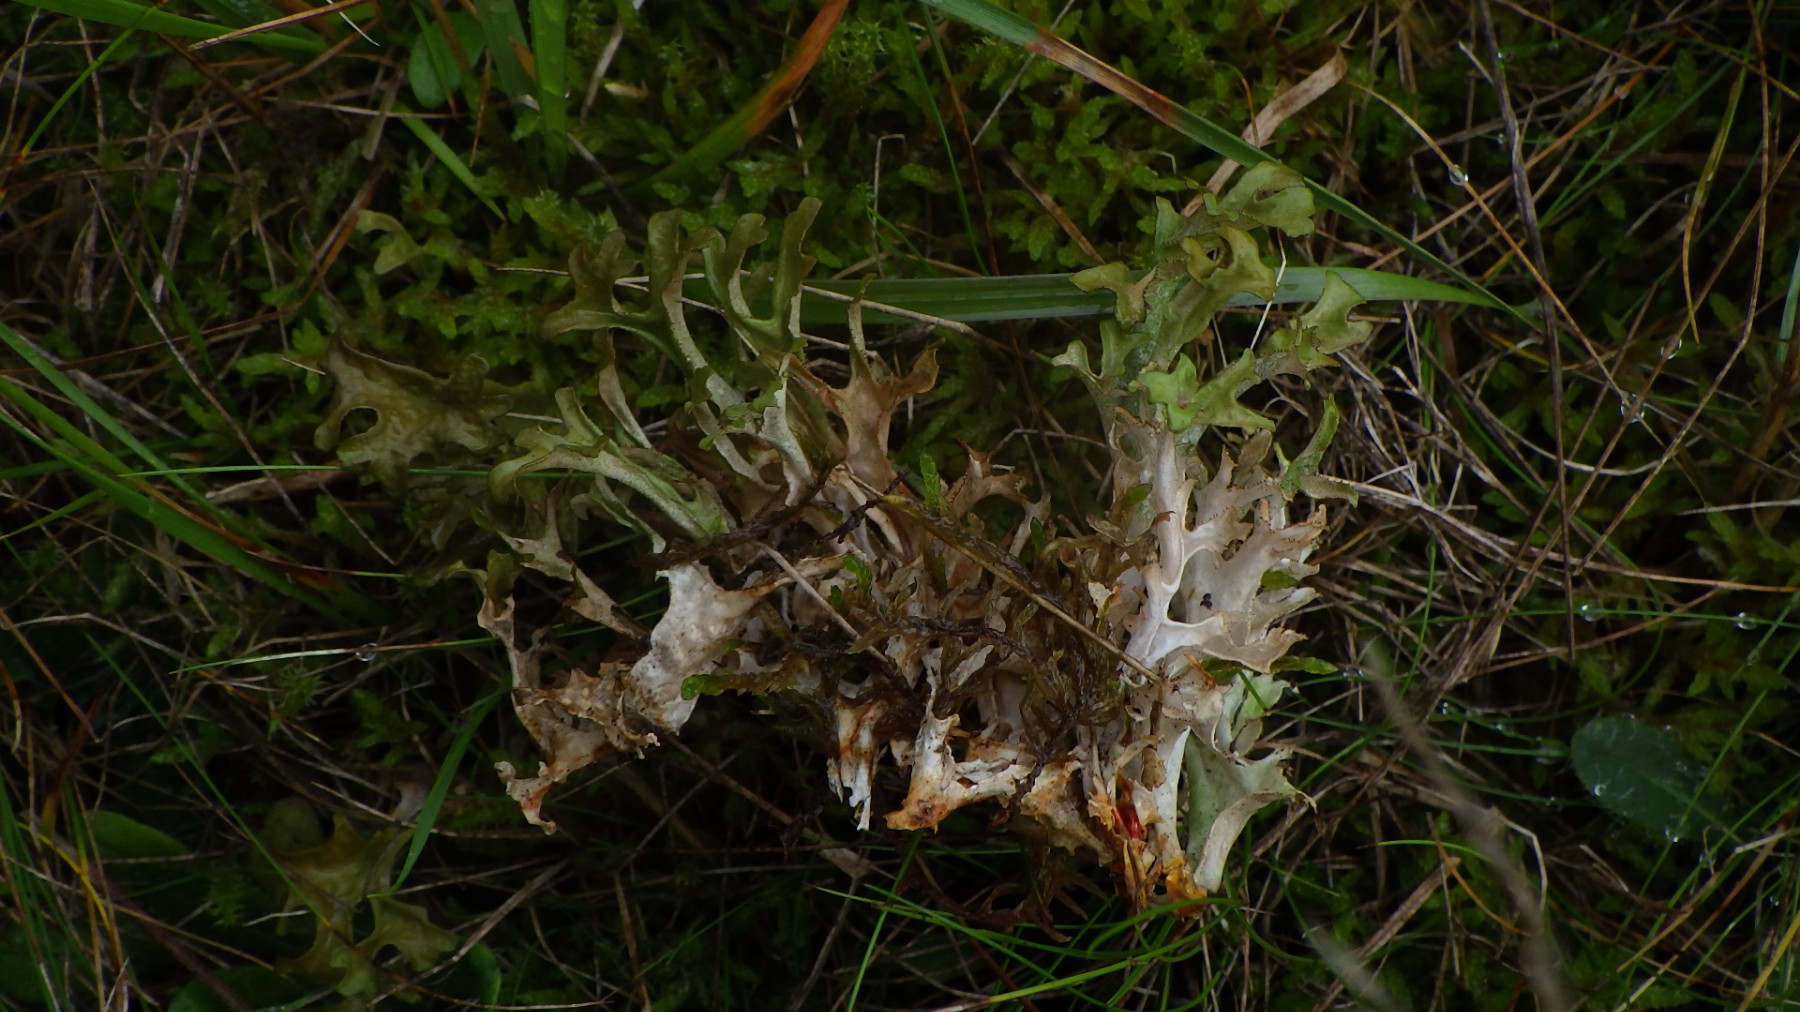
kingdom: Fungi
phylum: Ascomycota
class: Lecanoromycetes
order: Lecanorales
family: Parmeliaceae
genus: Cetraria
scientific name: Cetraria islandica
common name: islandsk kruslav
